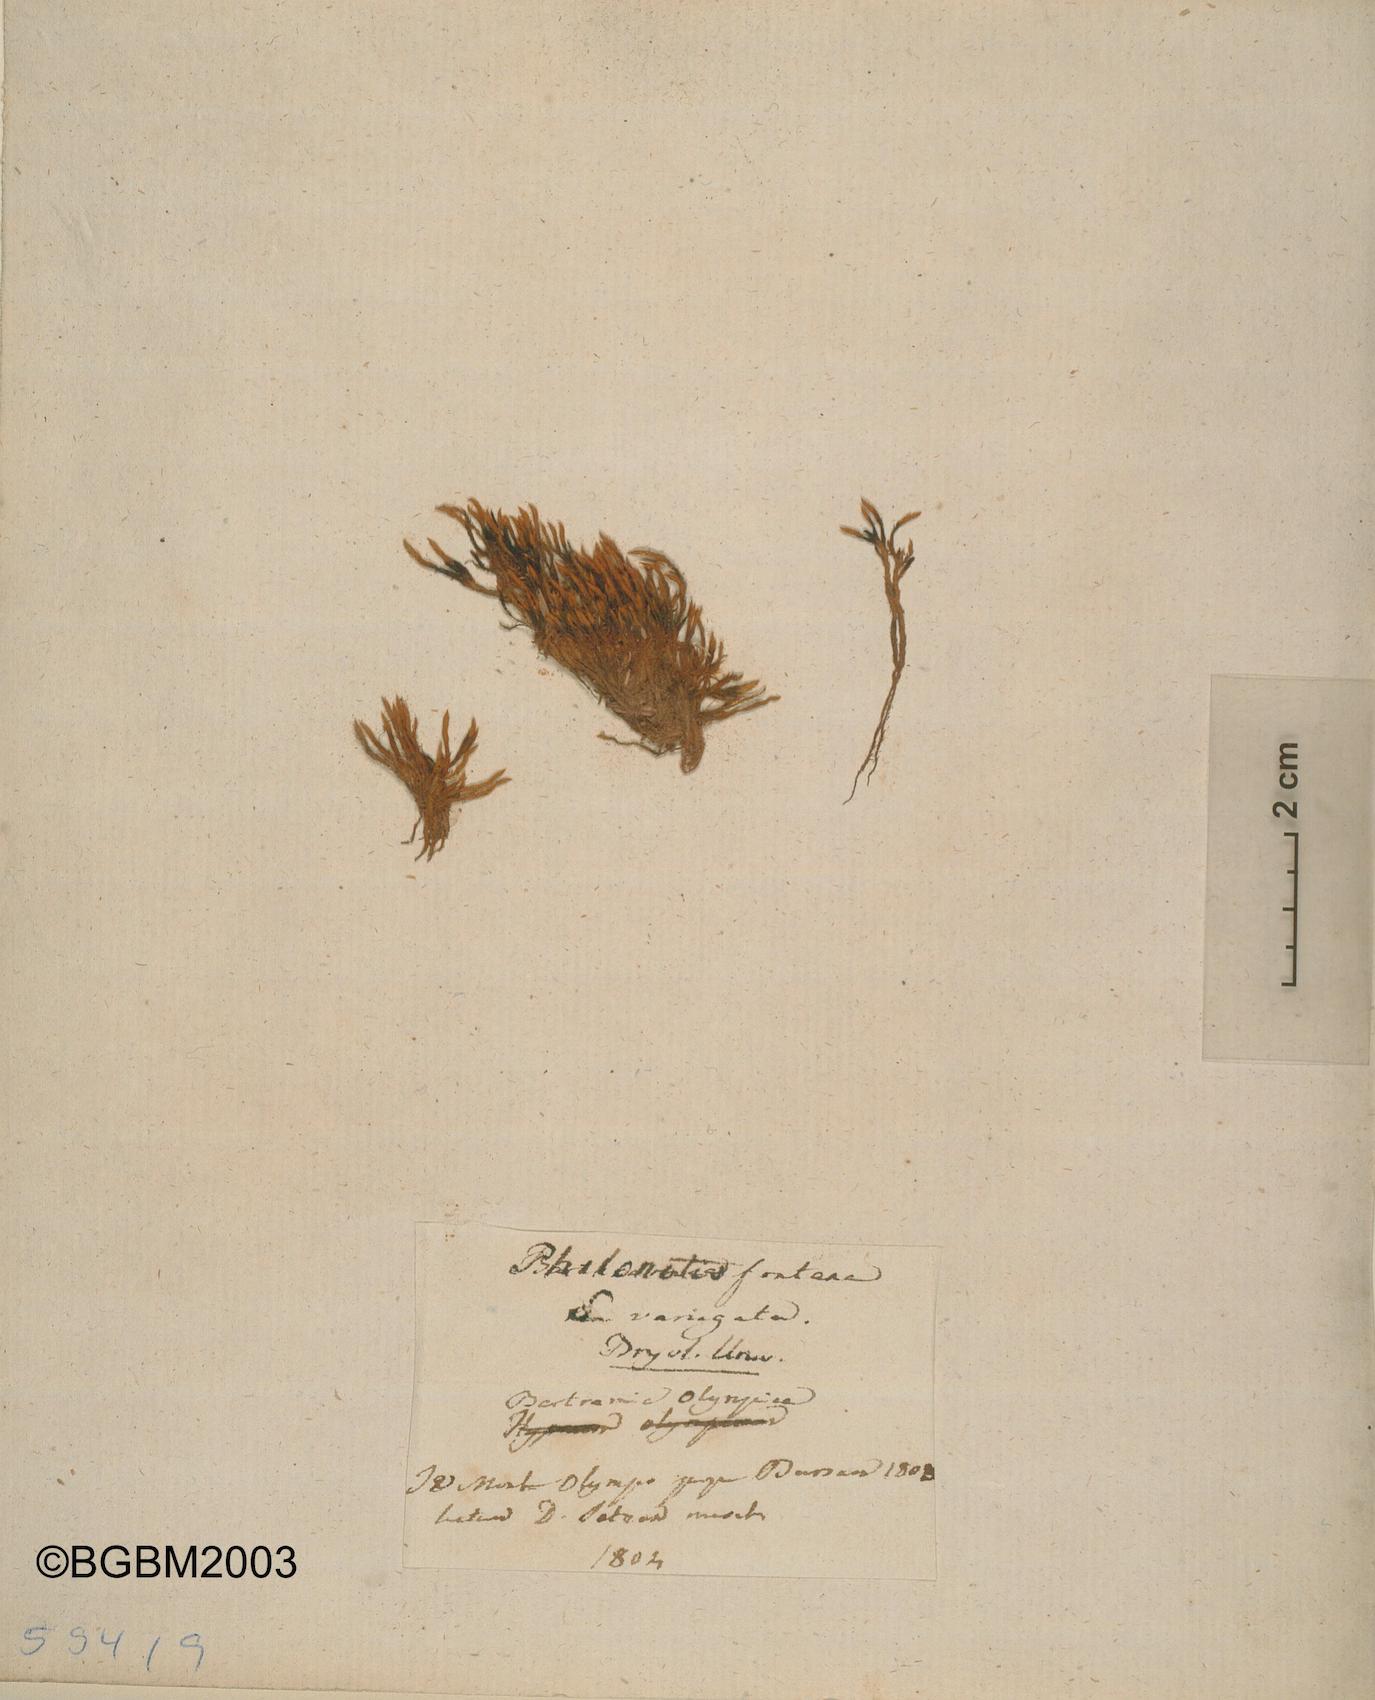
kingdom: Plantae
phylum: Bryophyta
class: Bryopsida
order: Bartramiales
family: Bartramiaceae
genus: Philonotis
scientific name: Philonotis fontana
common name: Fountain apple-moss
